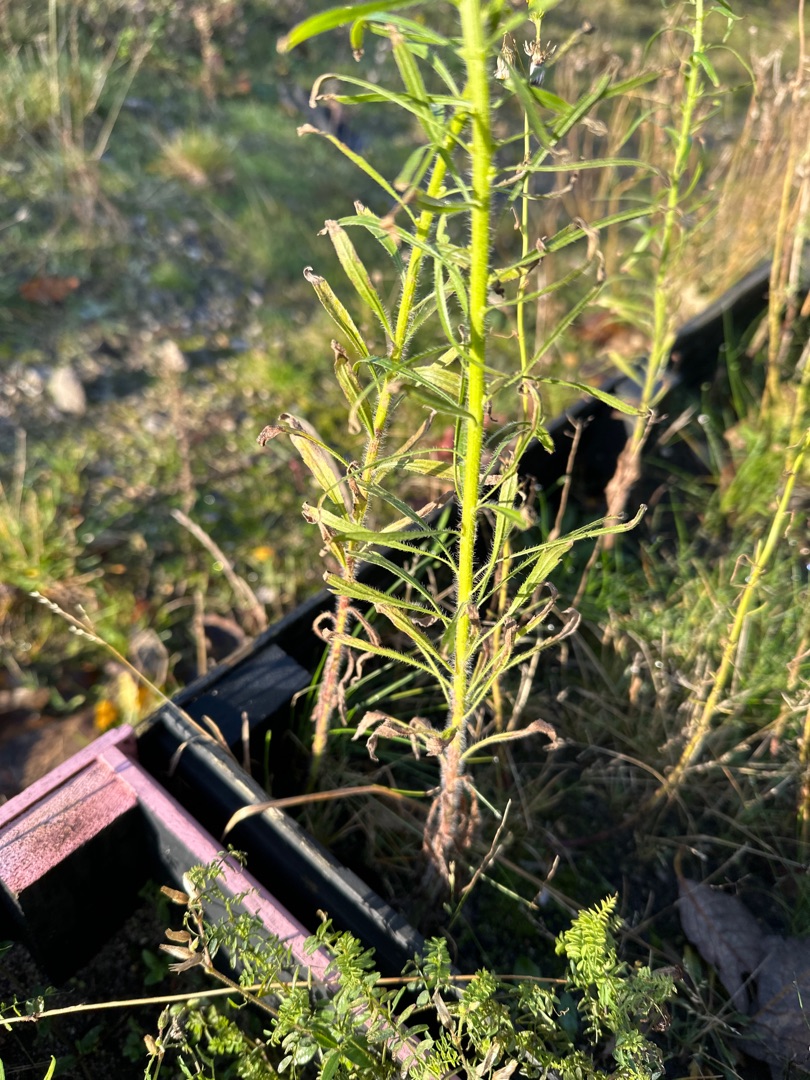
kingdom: Plantae
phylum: Tracheophyta
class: Magnoliopsida
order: Asterales
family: Asteraceae
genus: Erigeron
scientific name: Erigeron canadensis
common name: Kanadisk bakkestjerne
